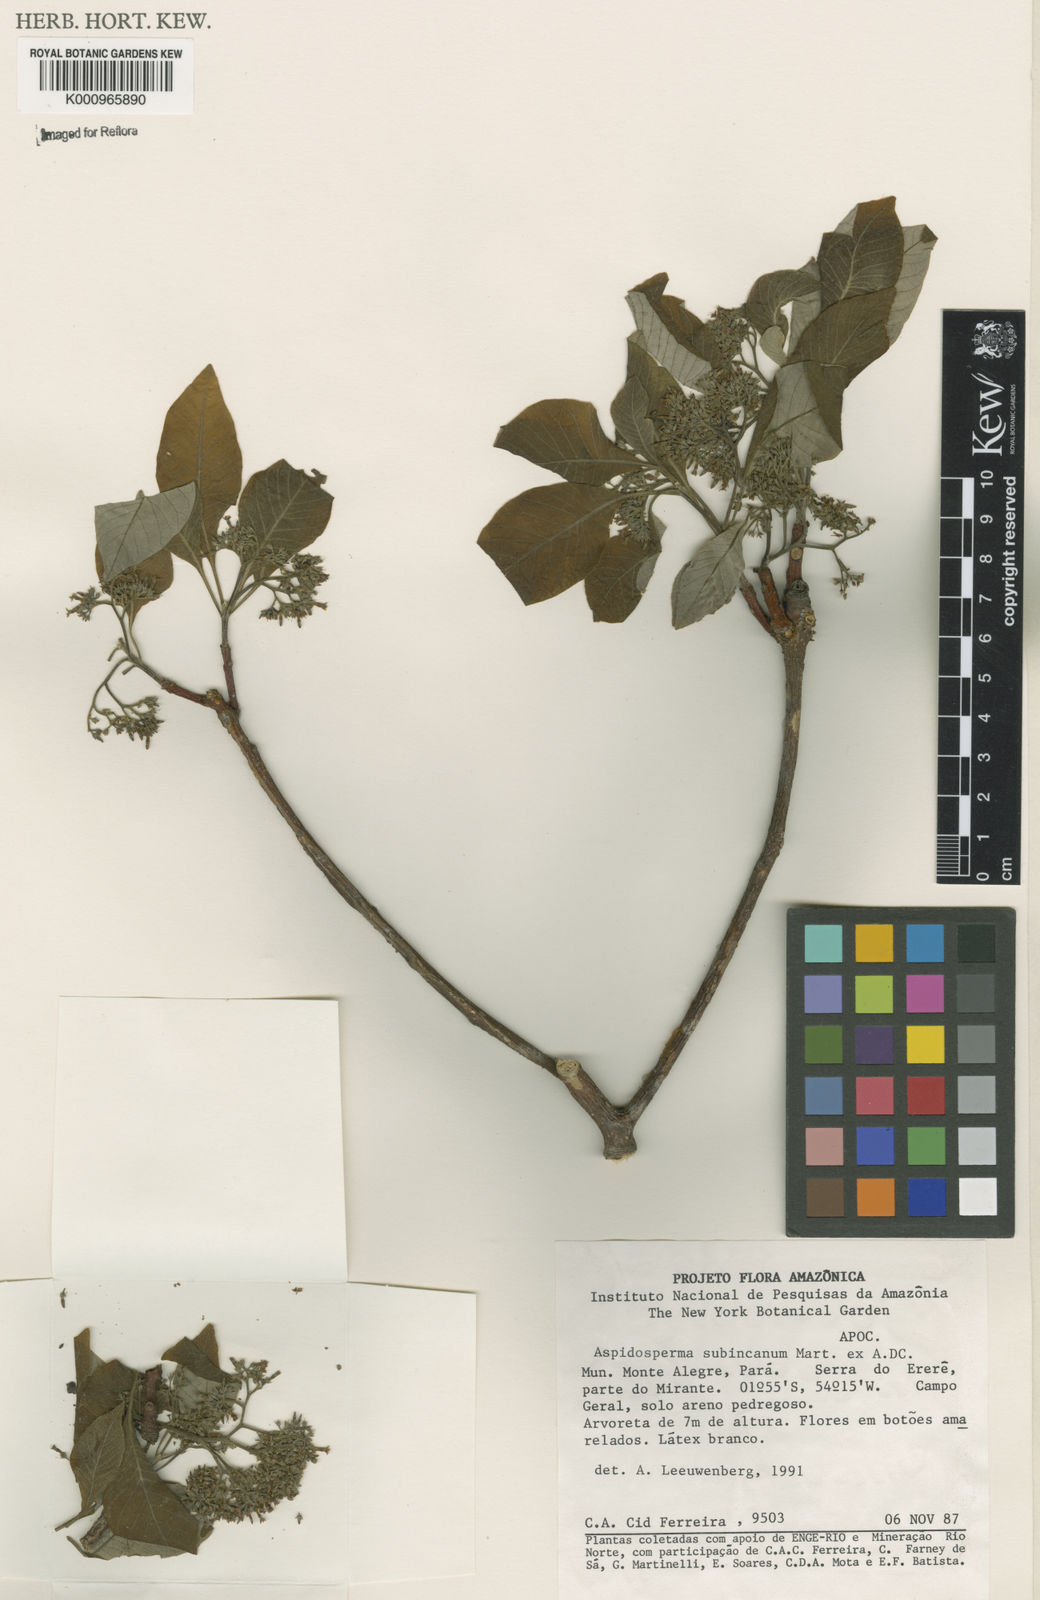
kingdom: Plantae
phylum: Tracheophyta
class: Magnoliopsida
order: Gentianales
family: Apocynaceae
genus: Aspidosperma
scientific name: Aspidosperma subincanum
